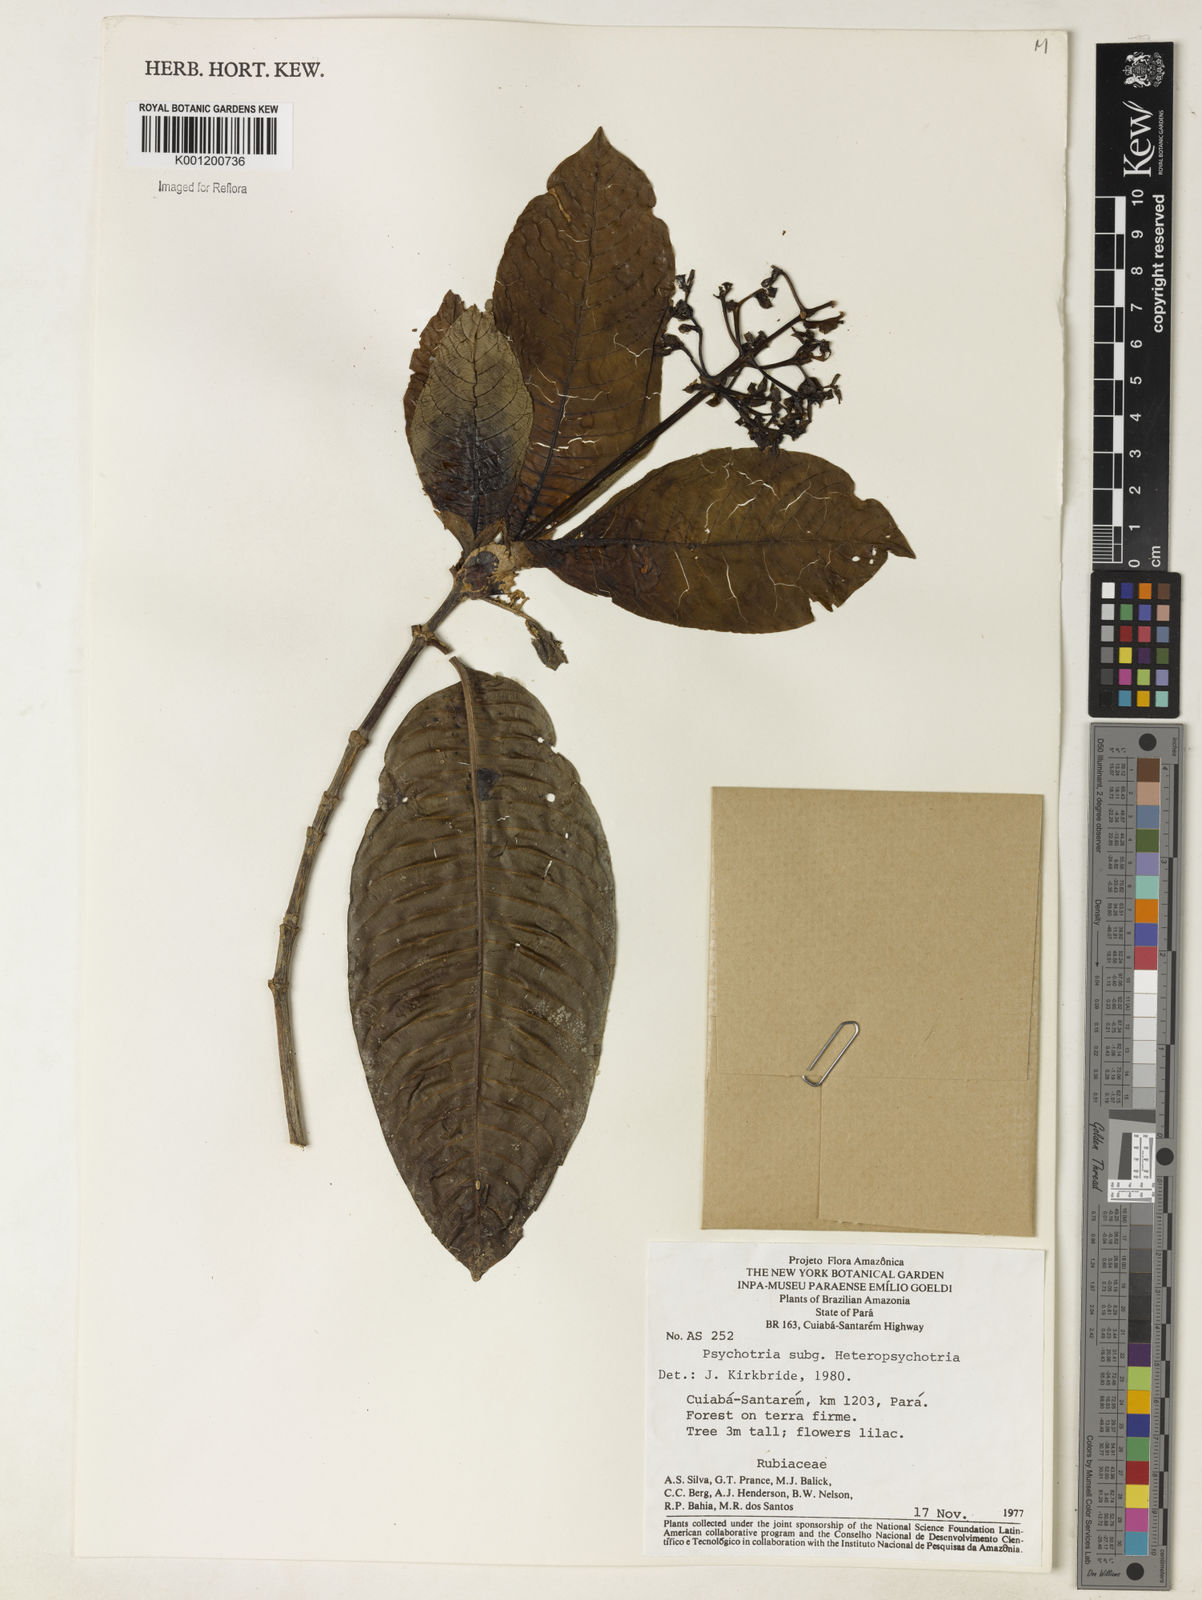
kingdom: Plantae
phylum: Tracheophyta
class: Magnoliopsida
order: Gentianales
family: Rubiaceae
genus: Psychotria
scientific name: Psychotria
